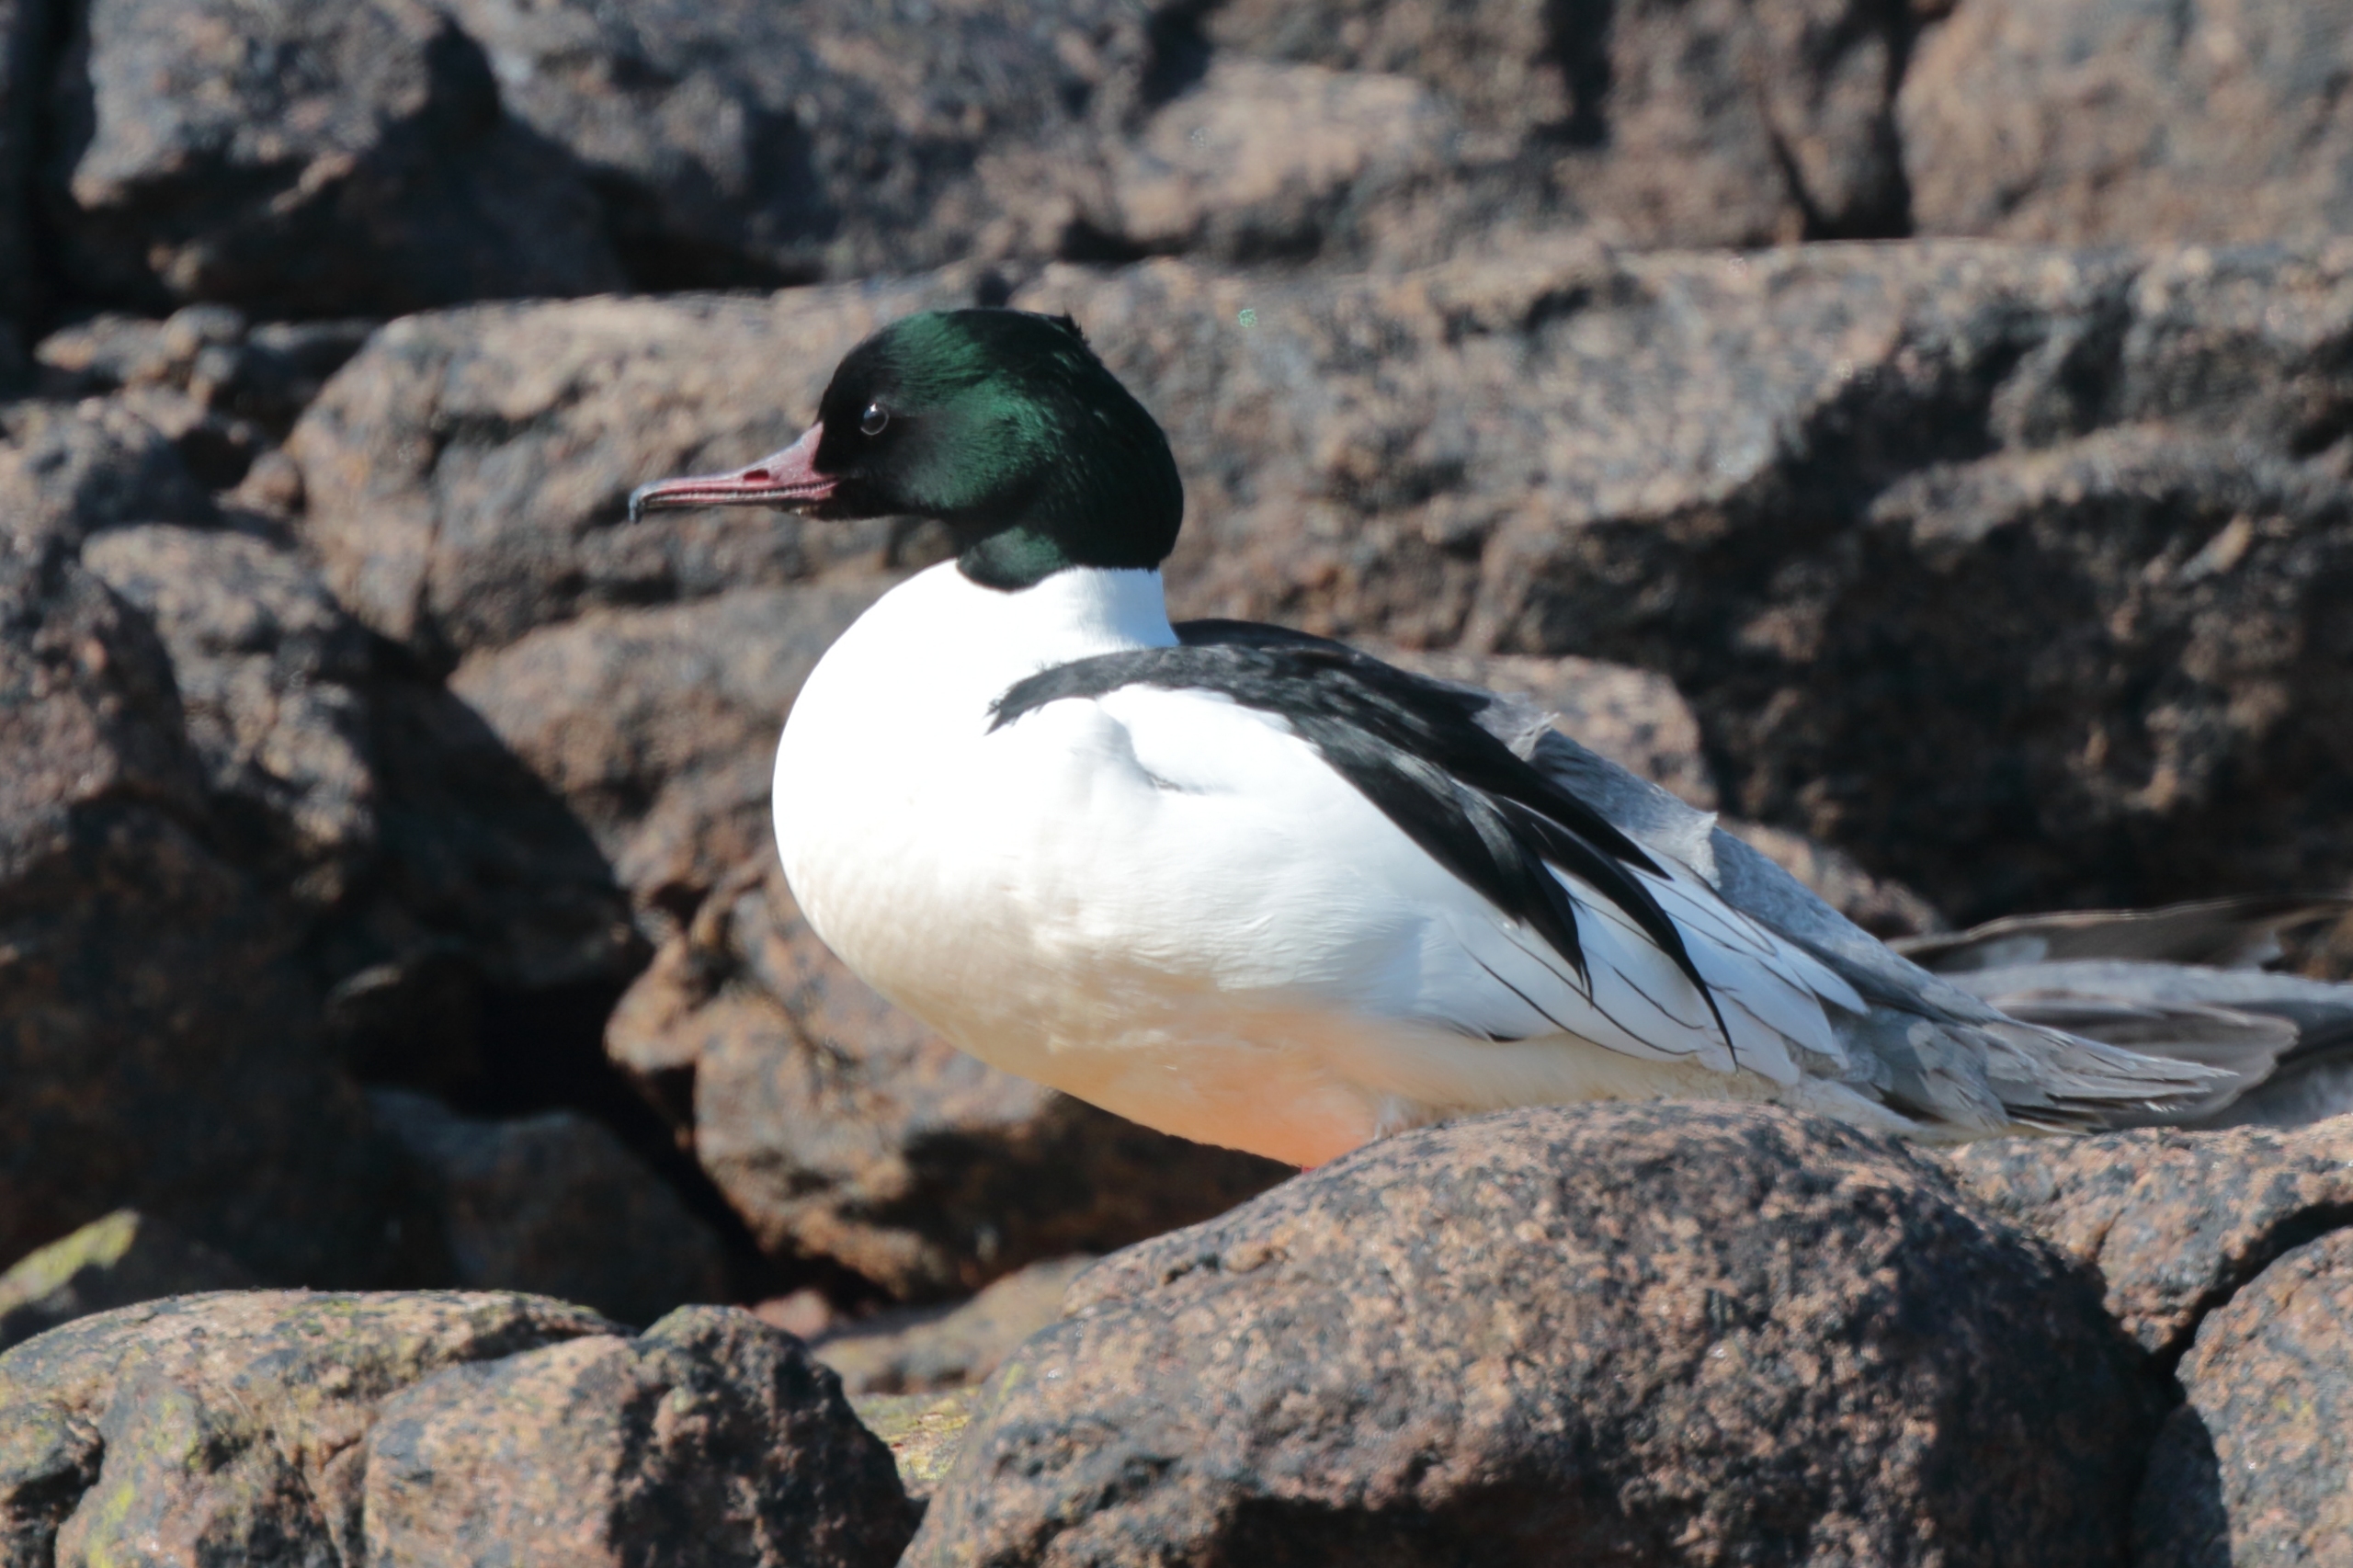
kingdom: Animalia
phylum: Chordata
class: Aves
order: Anseriformes
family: Anatidae
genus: Mergus
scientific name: Mergus merganser
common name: Stor skallesluger
